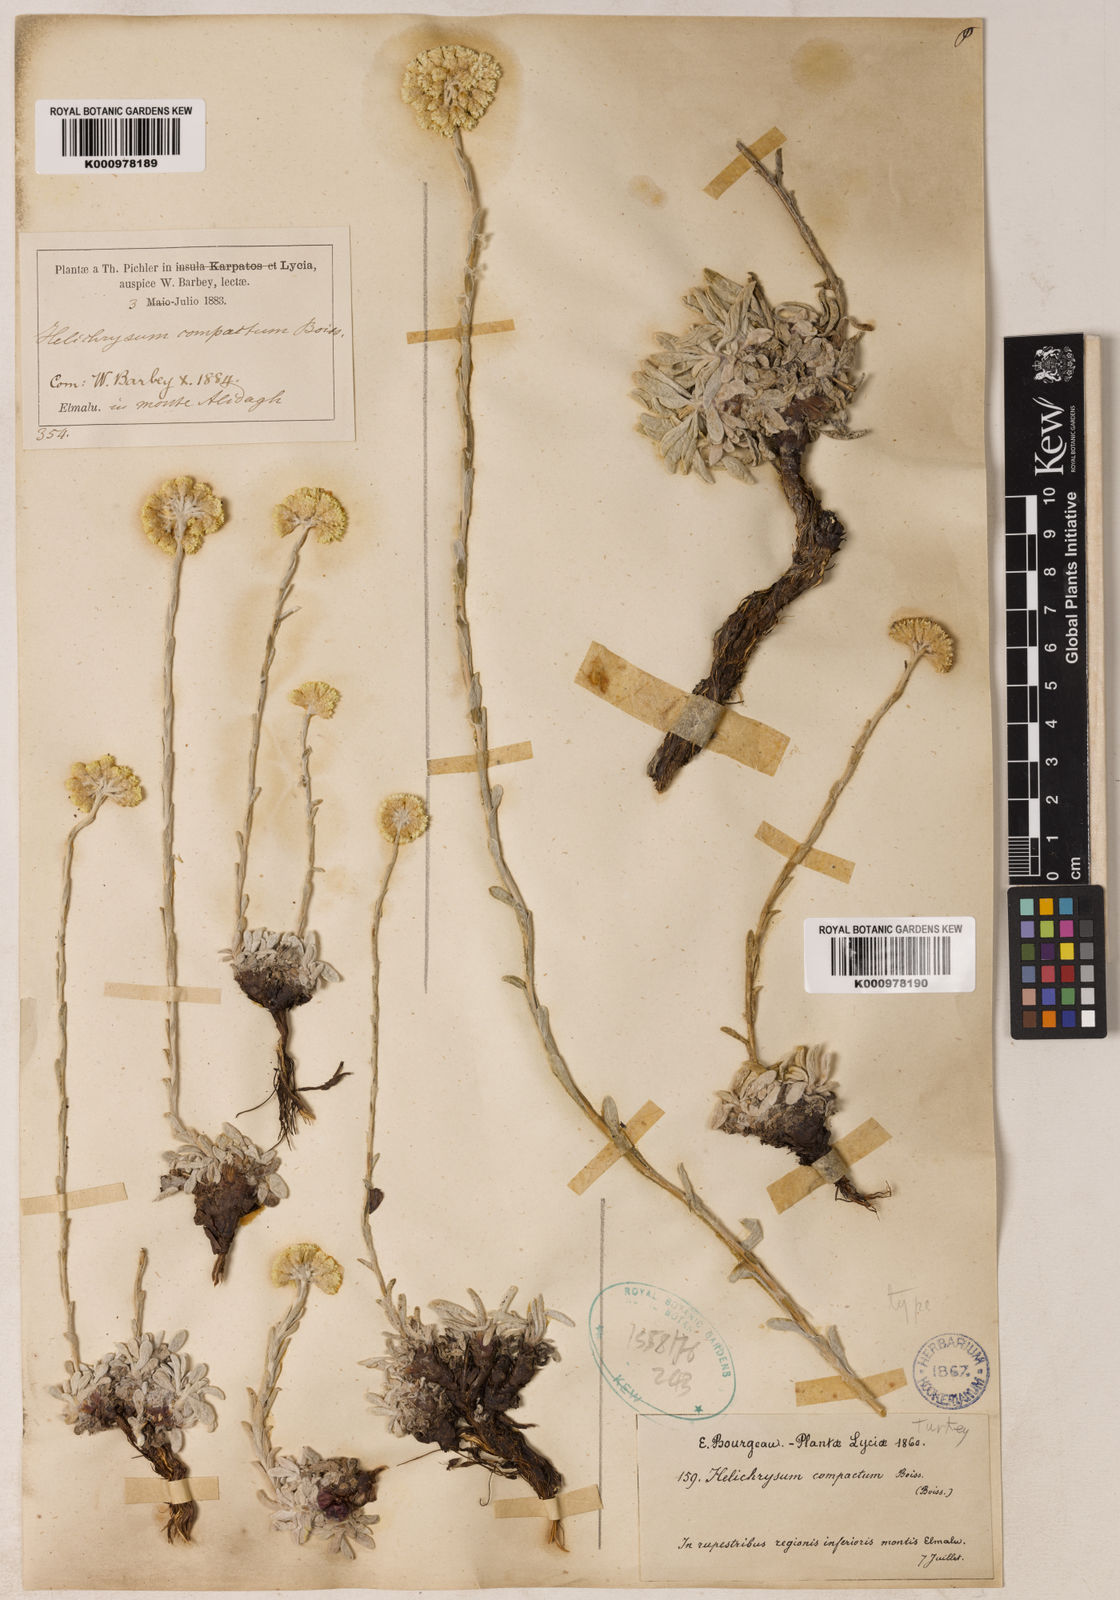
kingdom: Plantae
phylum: Tracheophyta
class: Magnoliopsida
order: Asterales
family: Asteraceae
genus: Helichrysum
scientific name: Helichrysum compactum
